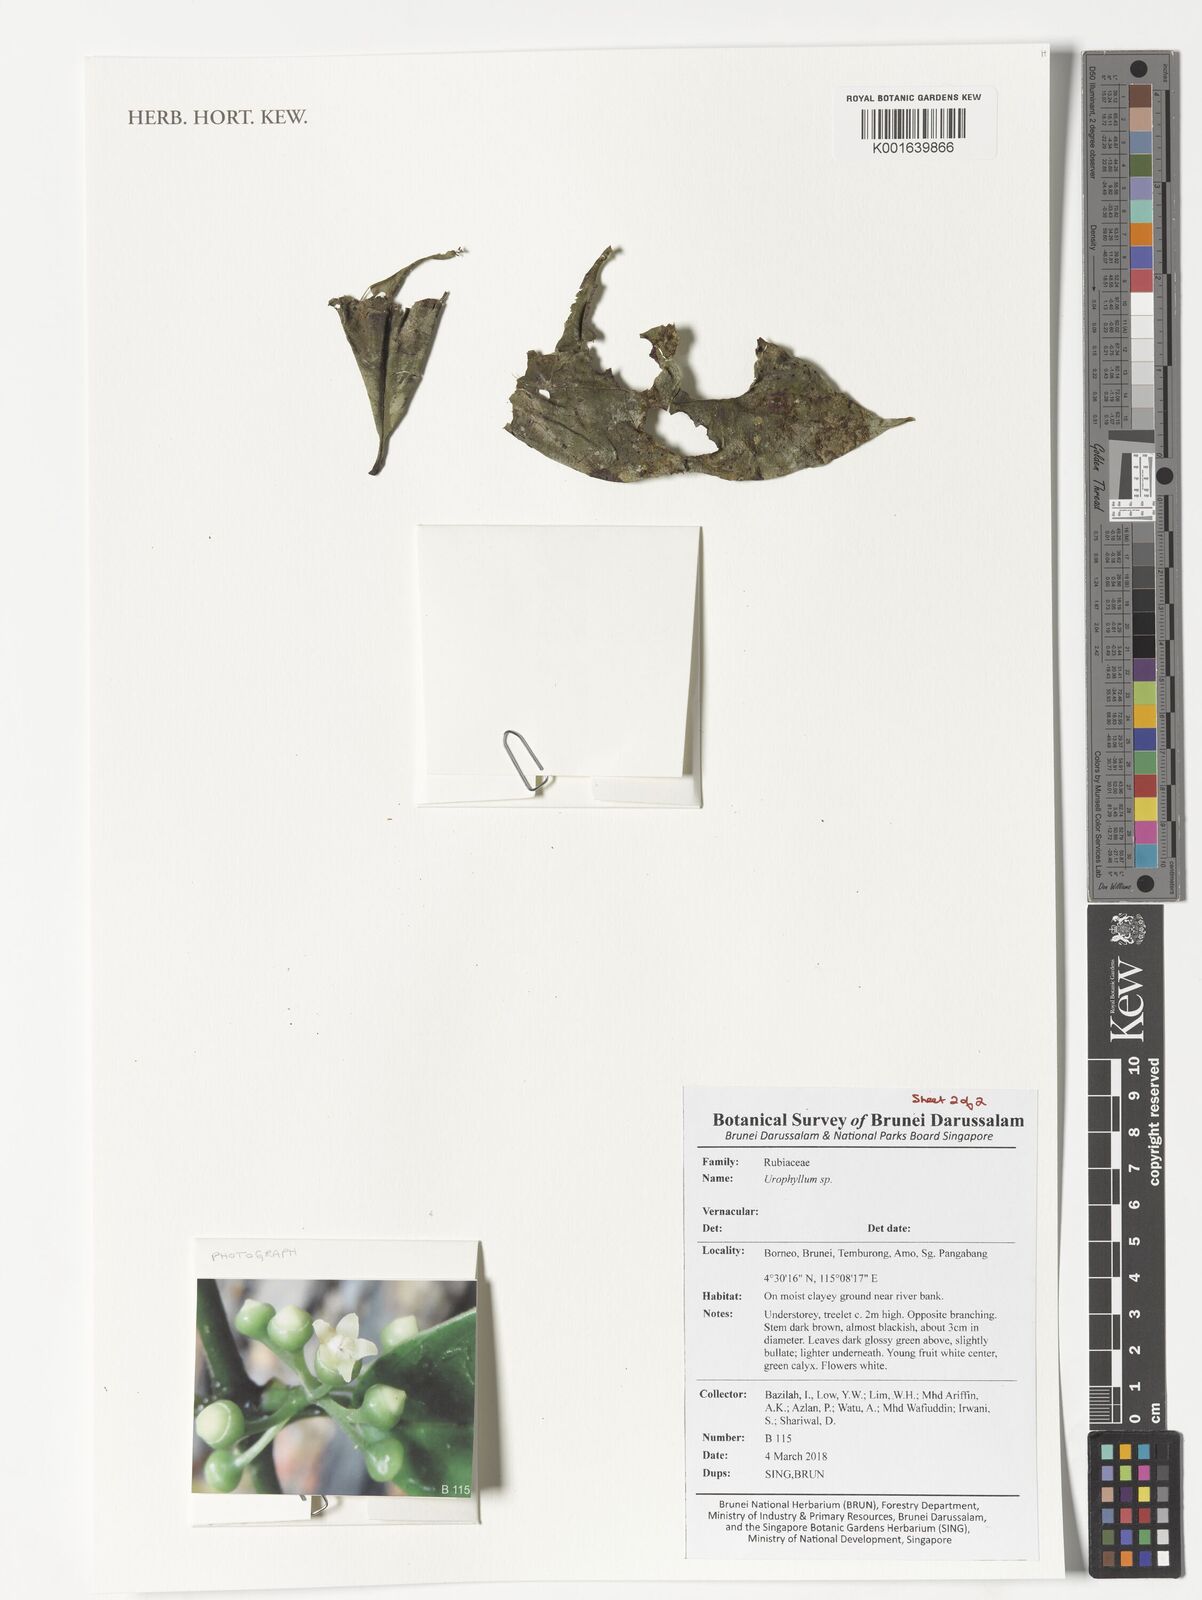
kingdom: Plantae
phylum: Tracheophyta
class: Magnoliopsida
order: Gentianales
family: Rubiaceae
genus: Urophyllum
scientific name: Urophyllum
